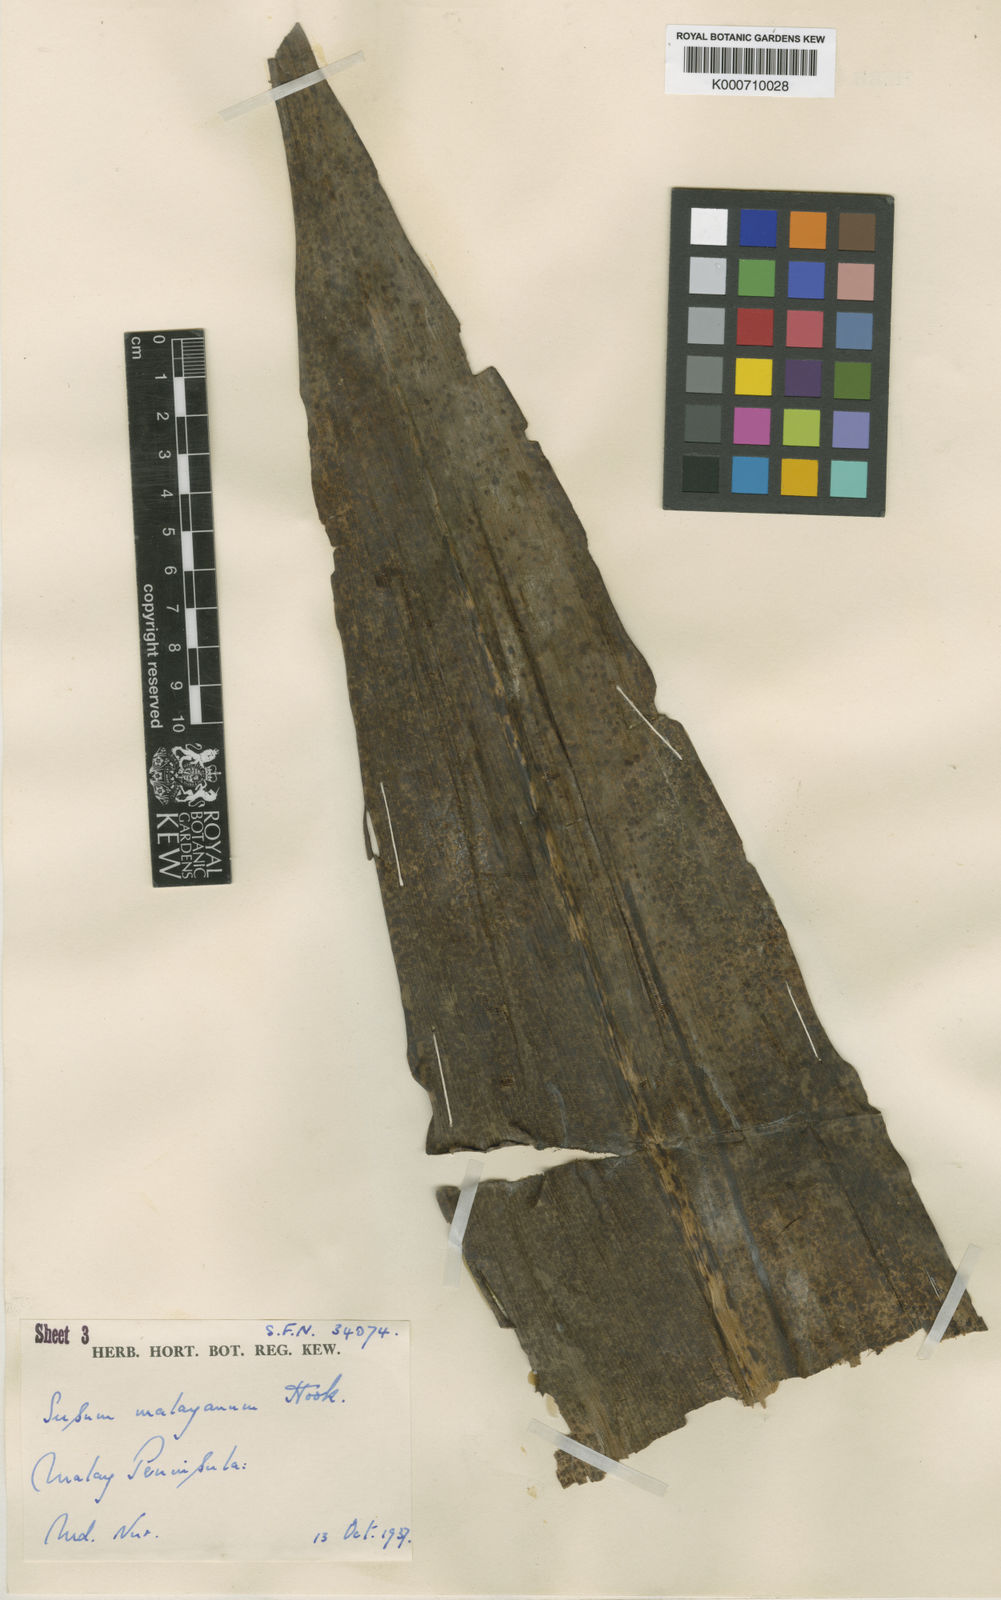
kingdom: Plantae
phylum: Tracheophyta
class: Liliopsida
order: Commelinales
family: Hanguanaceae
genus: Hanguana
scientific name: Hanguana malayana
